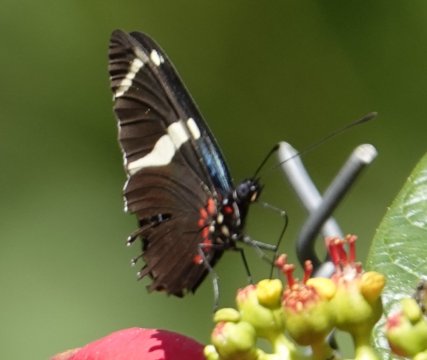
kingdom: Animalia
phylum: Arthropoda
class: Insecta
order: Lepidoptera
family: Nymphalidae
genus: Heliconius
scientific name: Heliconius sara
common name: Sara Longwing
